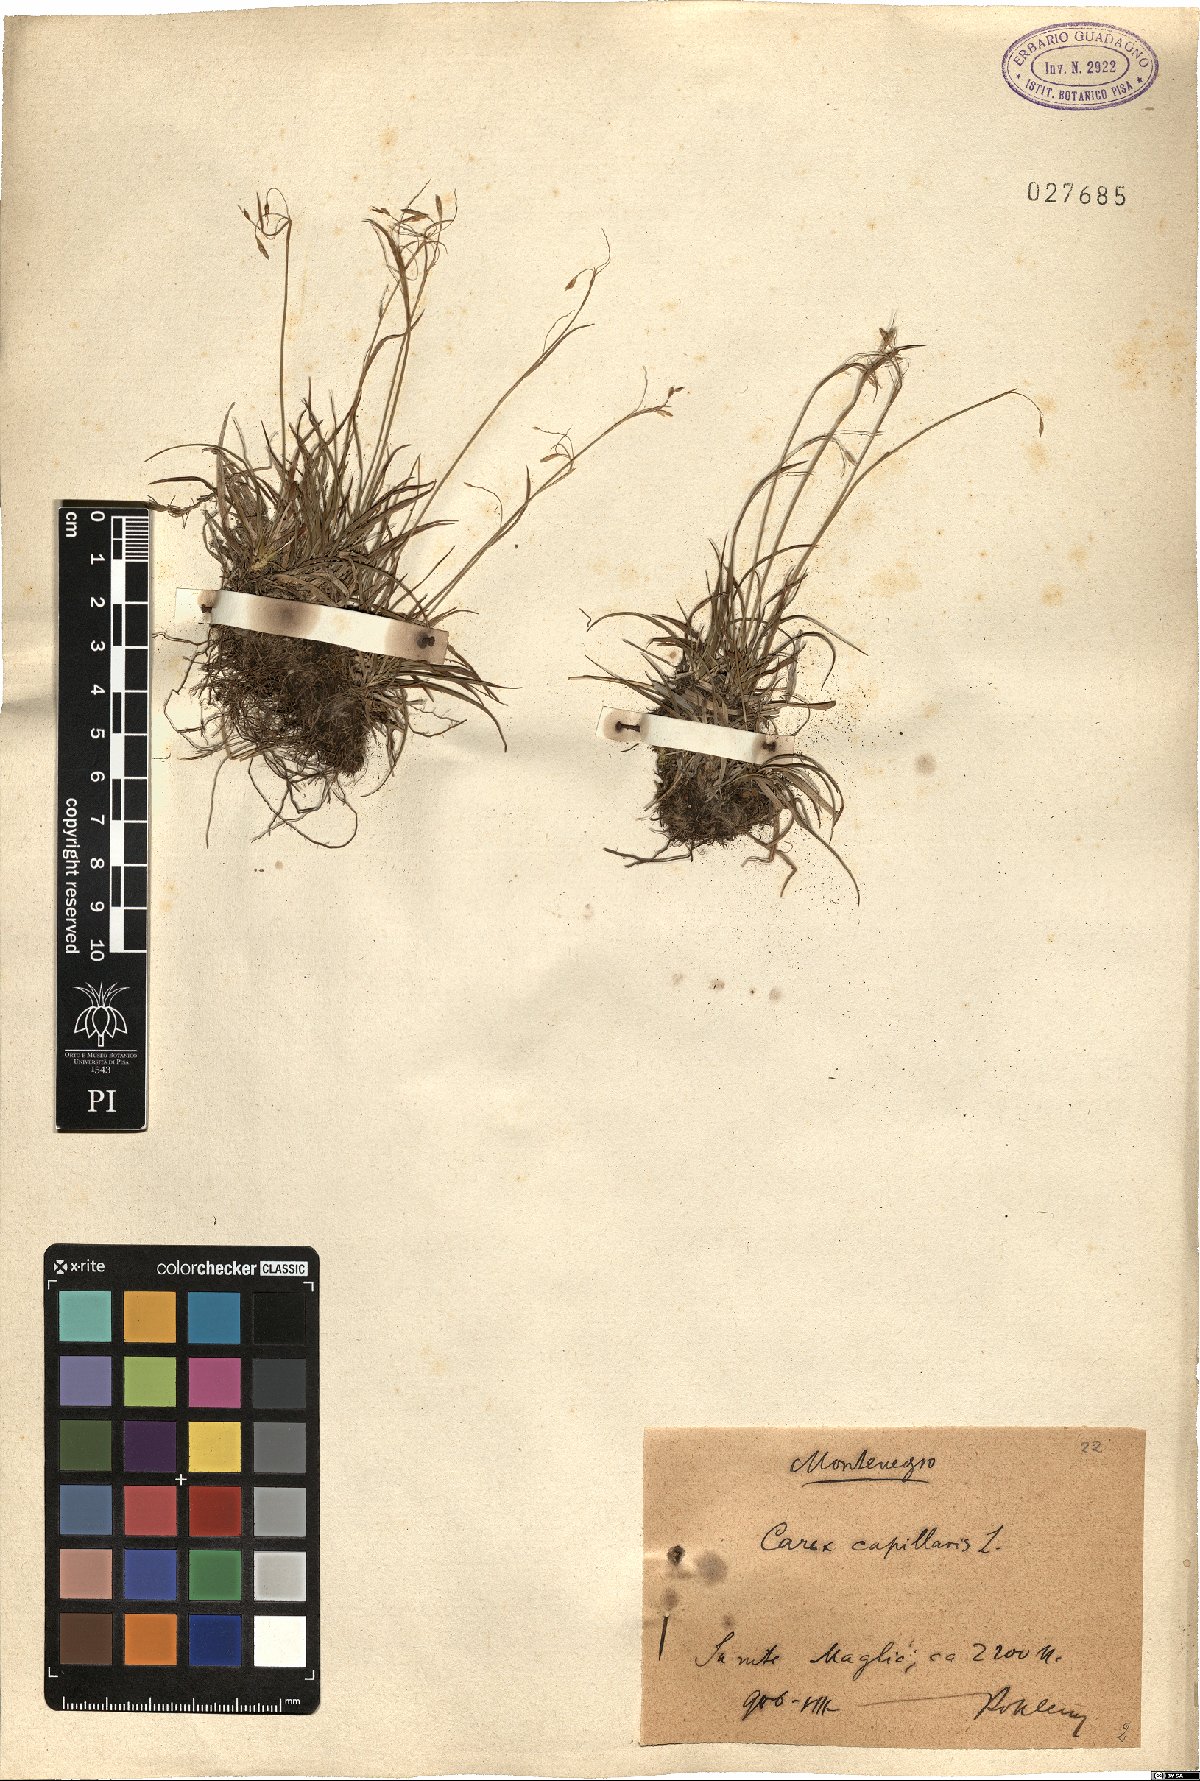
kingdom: Plantae
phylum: Tracheophyta
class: Liliopsida
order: Poales
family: Cyperaceae
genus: Carex
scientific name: Carex capillaris
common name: Hair sedge
